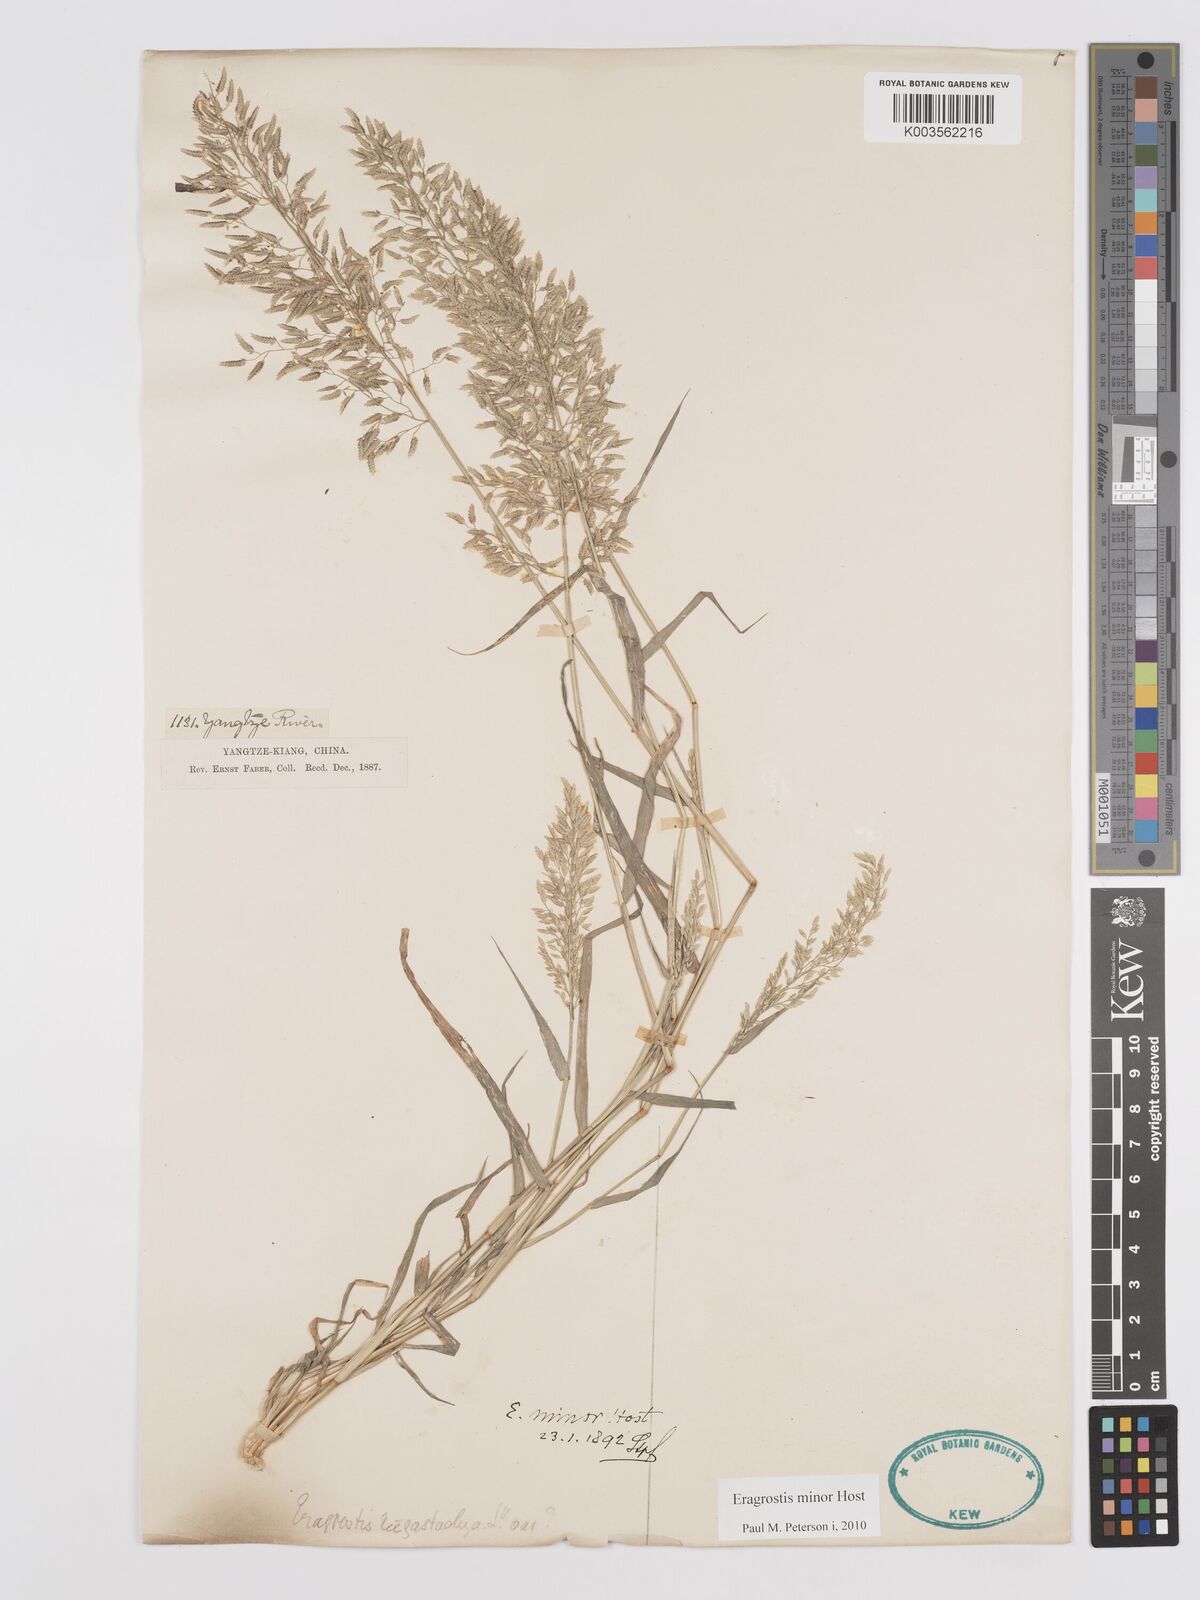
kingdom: Plantae
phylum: Tracheophyta
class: Liliopsida
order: Poales
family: Poaceae
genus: Eragrostis
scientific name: Eragrostis minor
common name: Small love-grass
